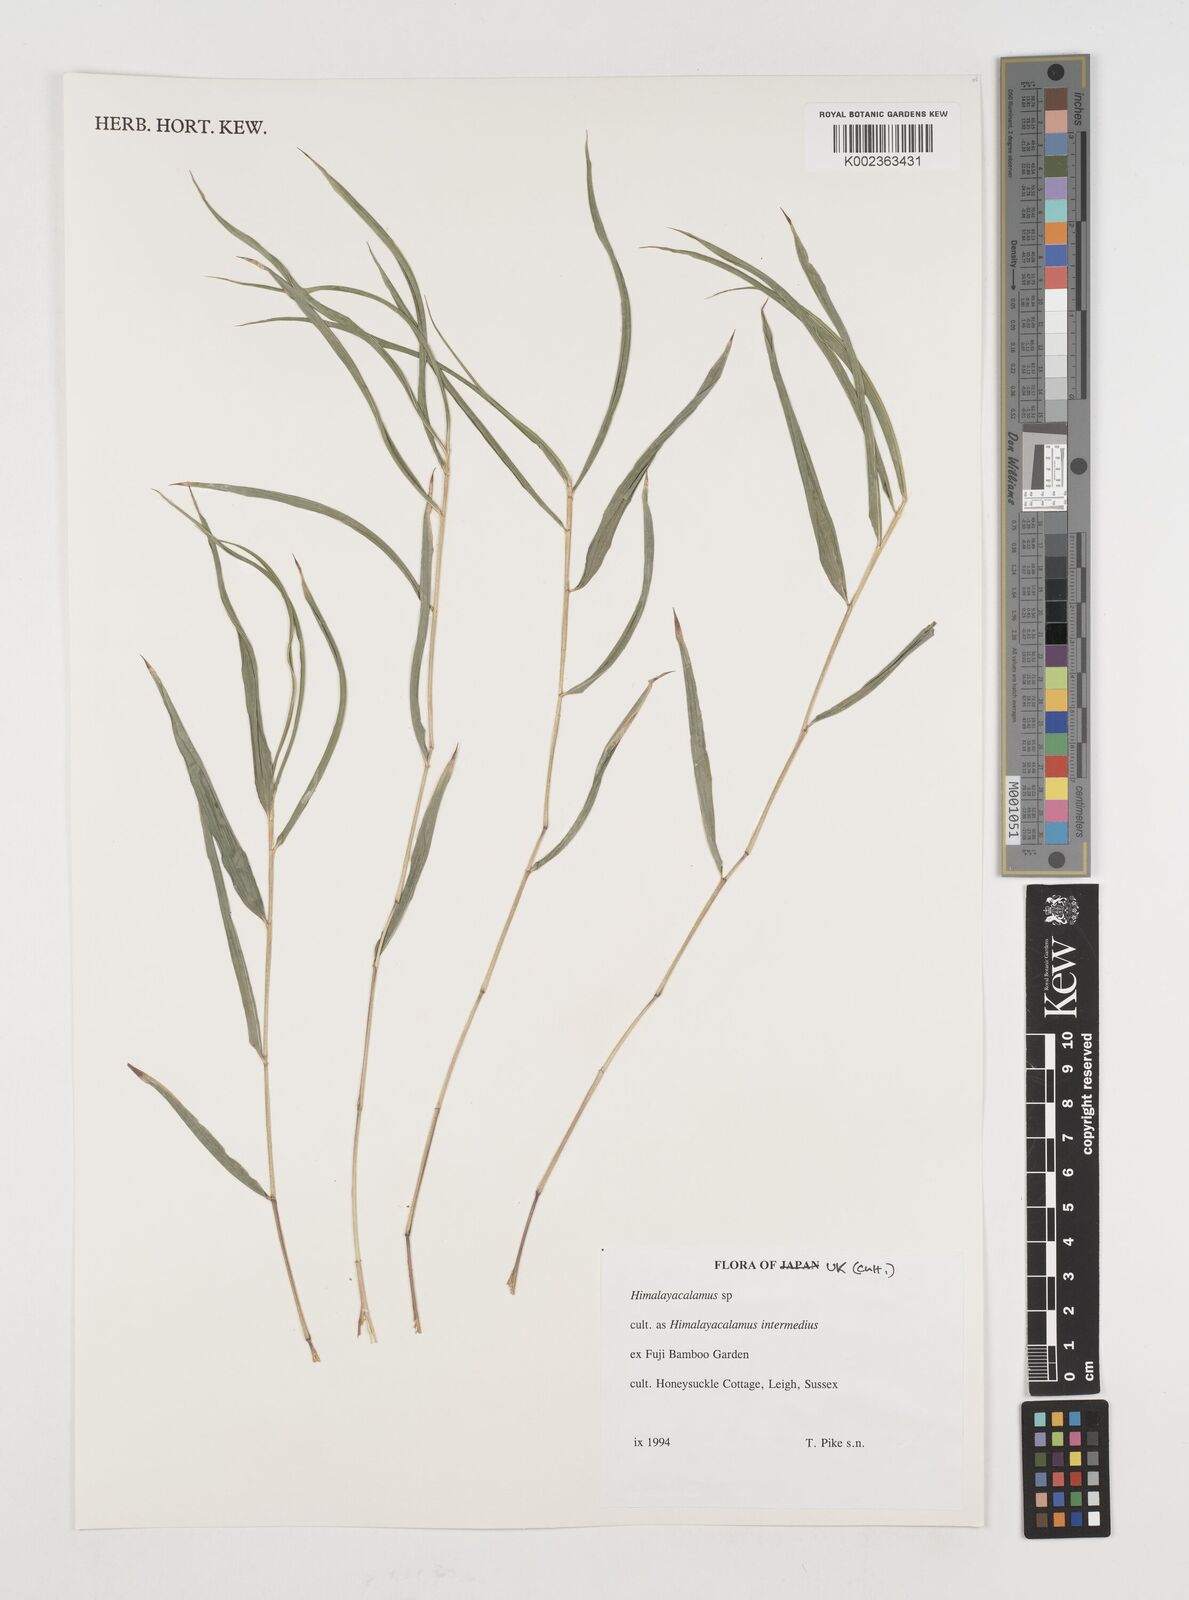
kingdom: Plantae
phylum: Tracheophyta
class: Liliopsida
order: Poales
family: Poaceae
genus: Himalayacalamus
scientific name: Himalayacalamus
